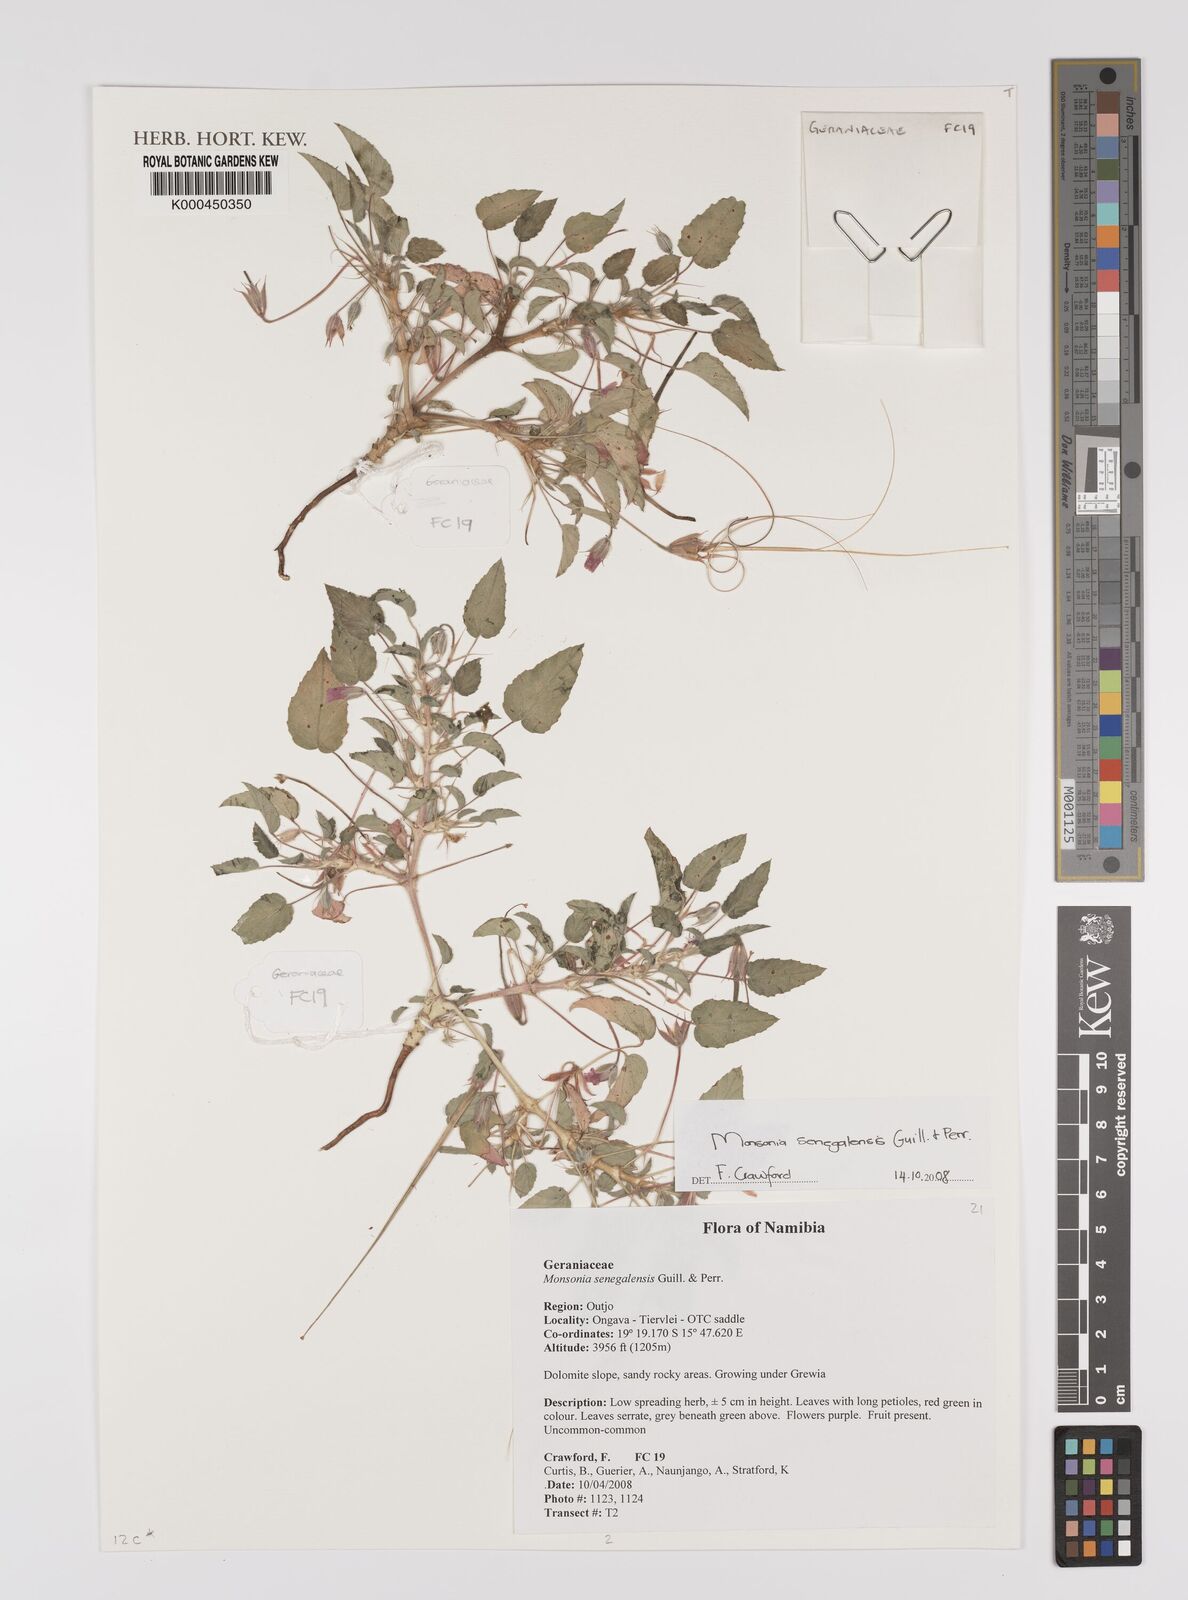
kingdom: Plantae
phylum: Tracheophyta
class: Magnoliopsida
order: Geraniales
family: Geraniaceae
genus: Monsonia
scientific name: Monsonia senegalensis
